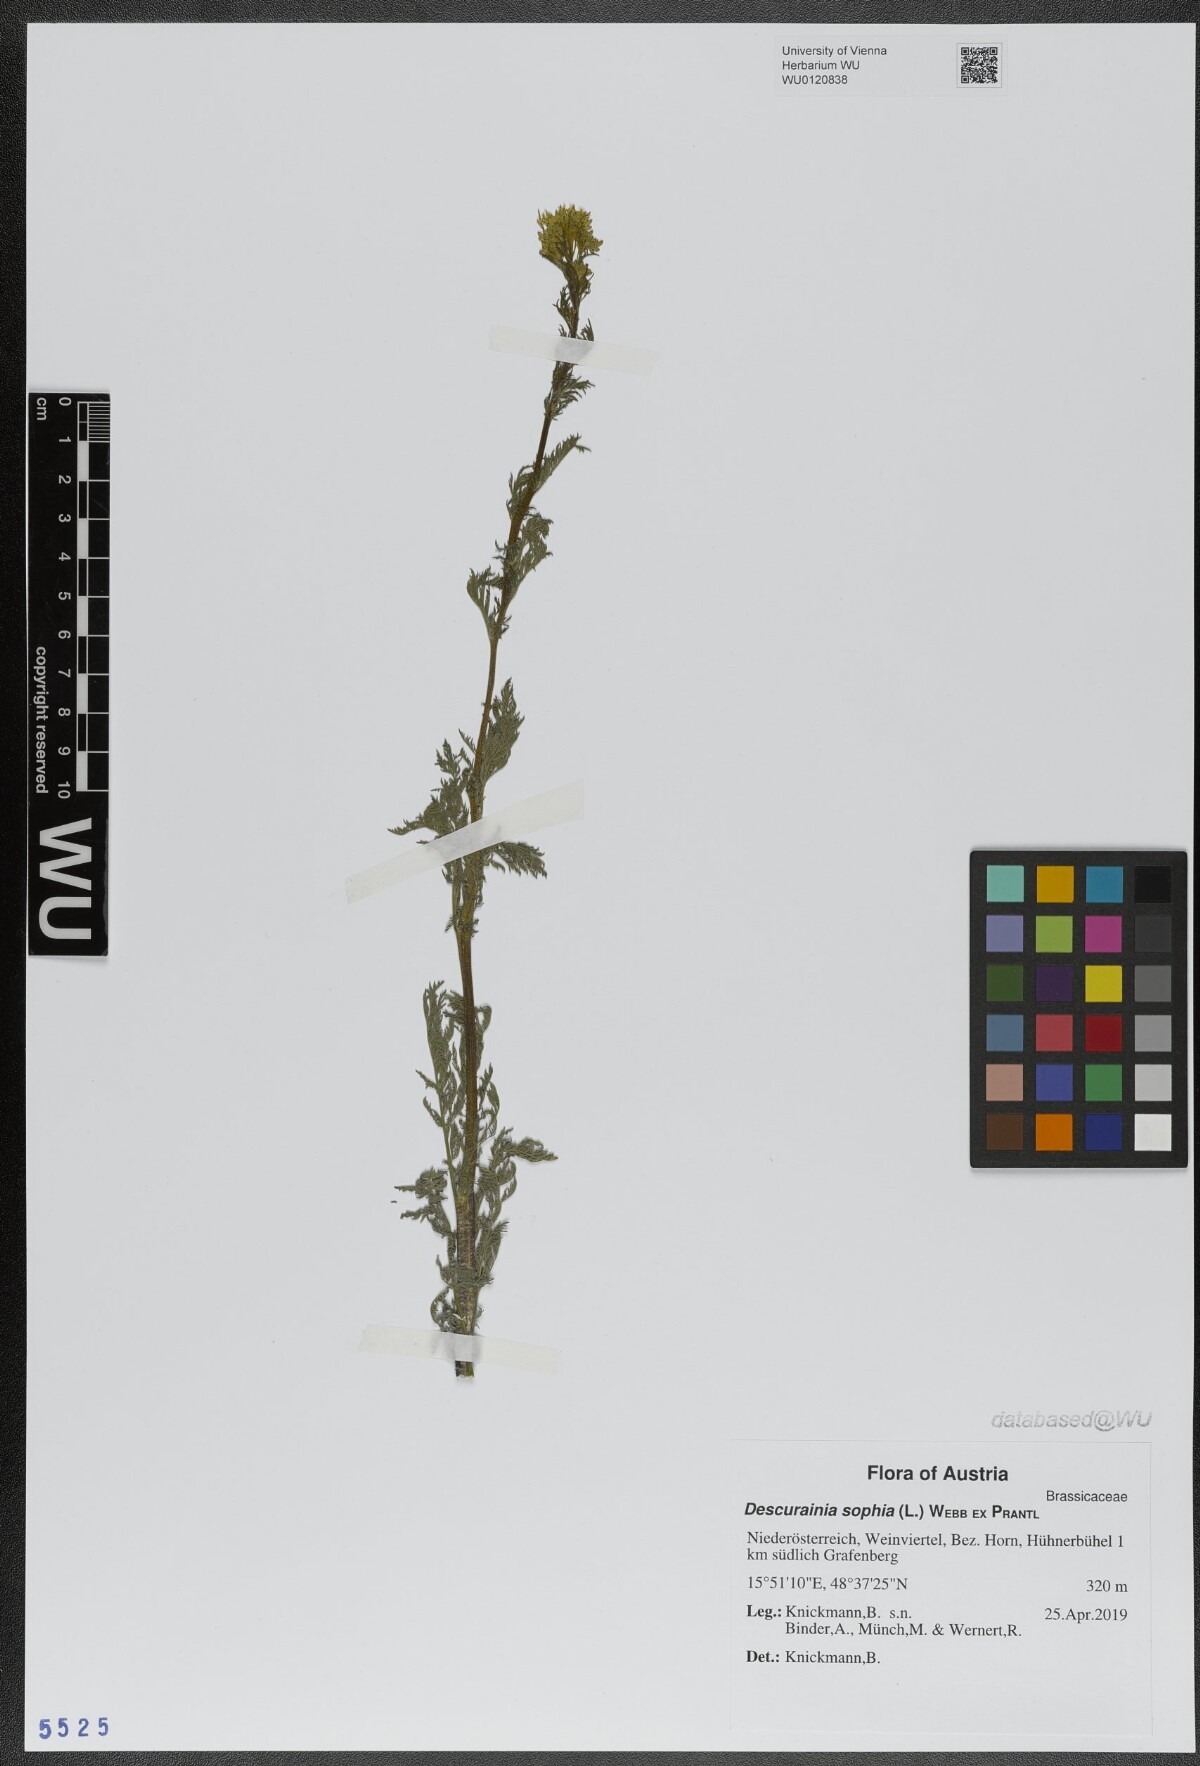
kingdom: Plantae
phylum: Tracheophyta
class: Magnoliopsida
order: Brassicales
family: Brassicaceae
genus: Descurainia
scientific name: Descurainia sophia
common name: Flixweed
